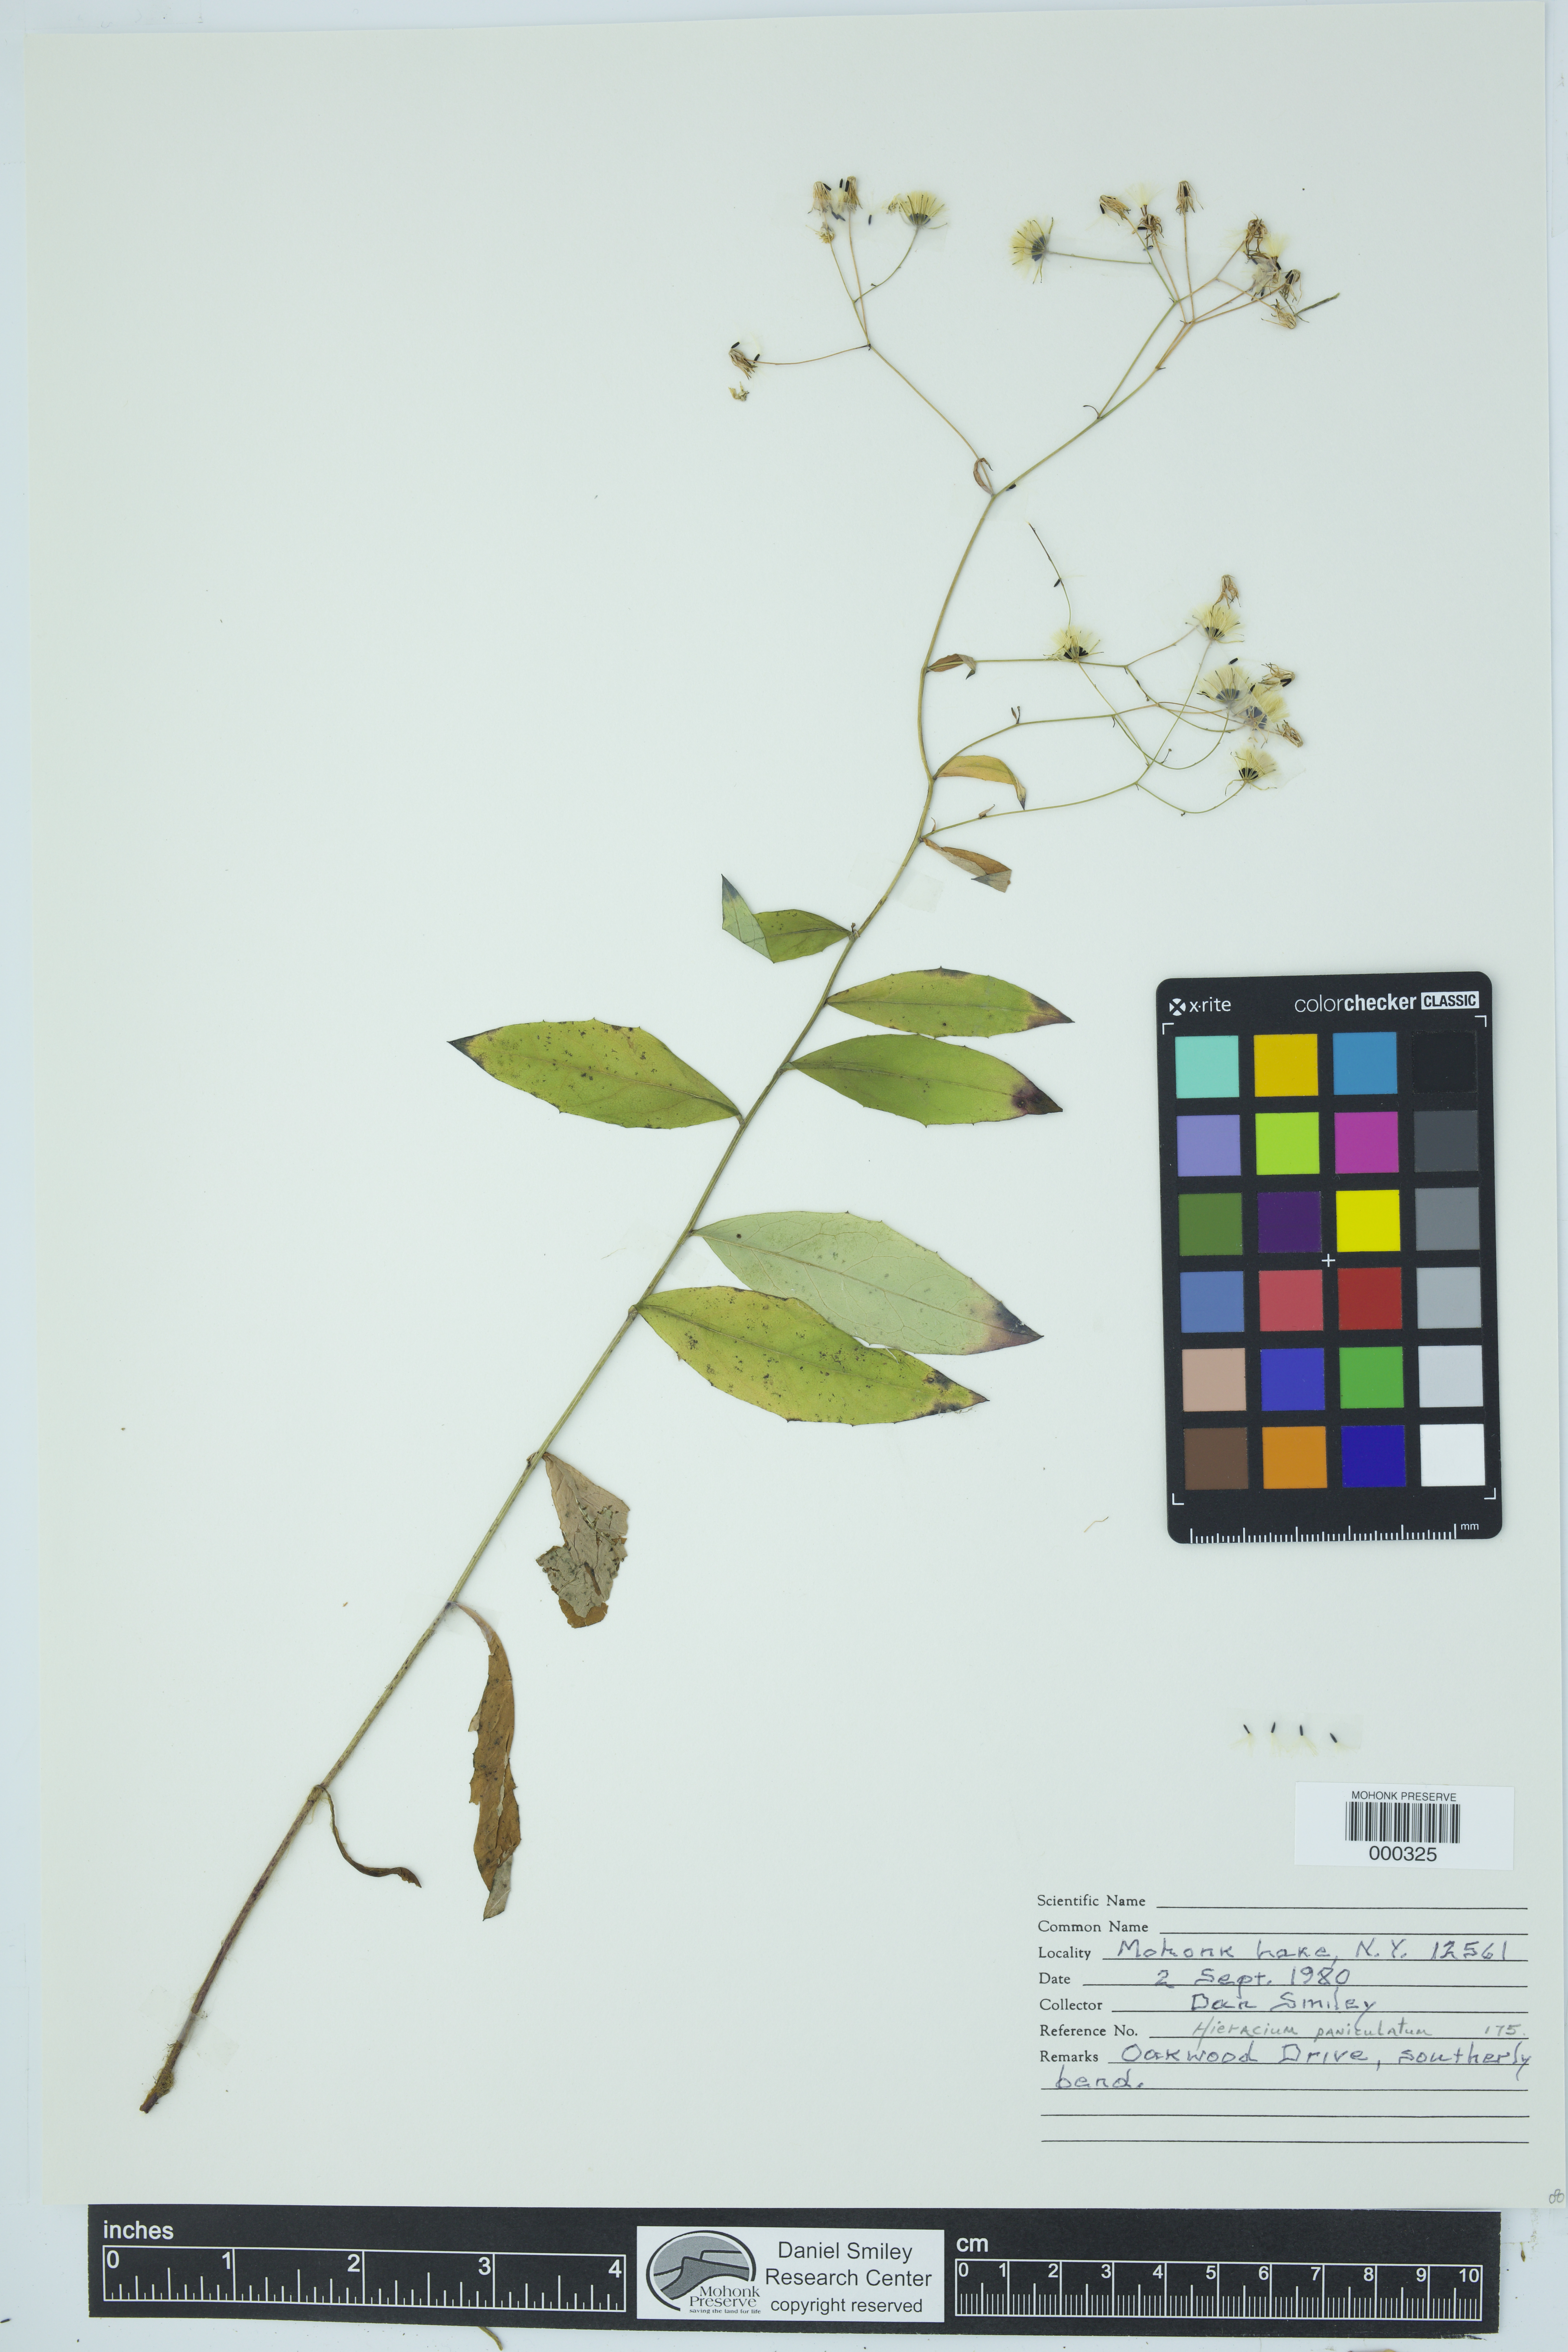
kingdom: Plantae
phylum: Tracheophyta
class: Magnoliopsida
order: Asterales
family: Asteraceae
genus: Hieracium
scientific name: Hieracium paniculatum
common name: Allegheny hawkweed
